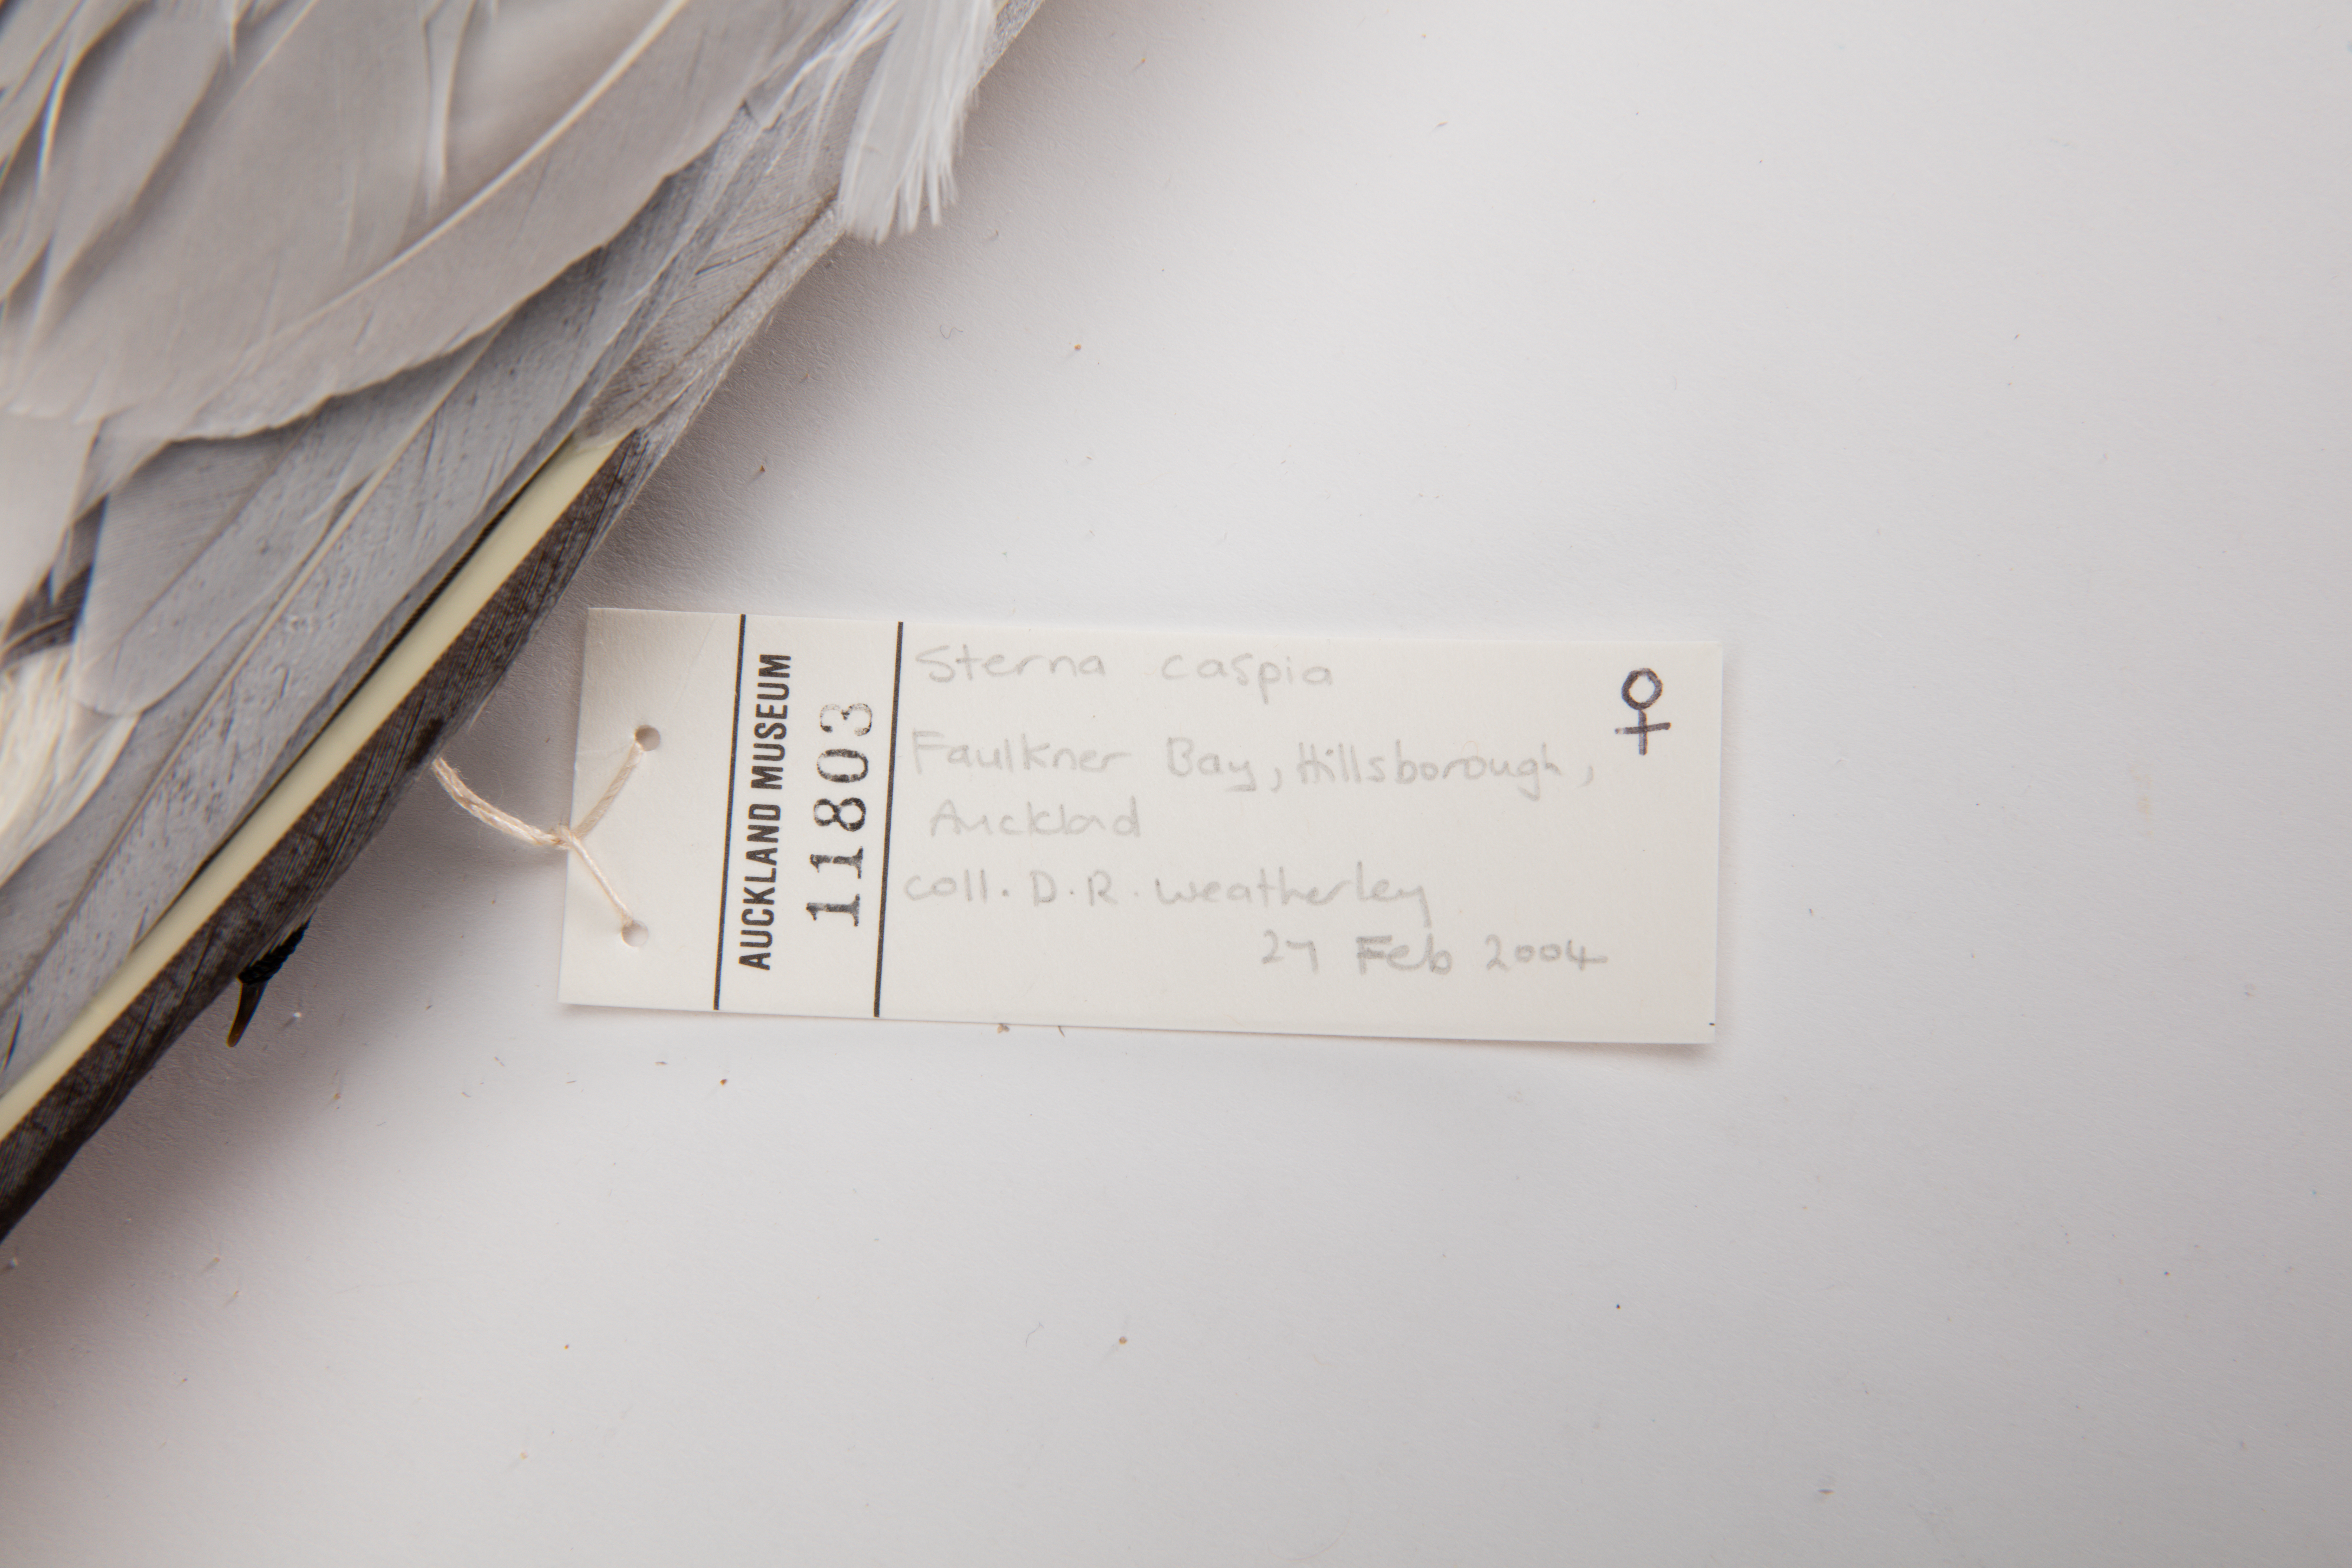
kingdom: Animalia
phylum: Chordata
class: Aves
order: Charadriiformes
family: Laridae
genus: Hydroprogne
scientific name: Hydroprogne caspia
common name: Caspian tern
